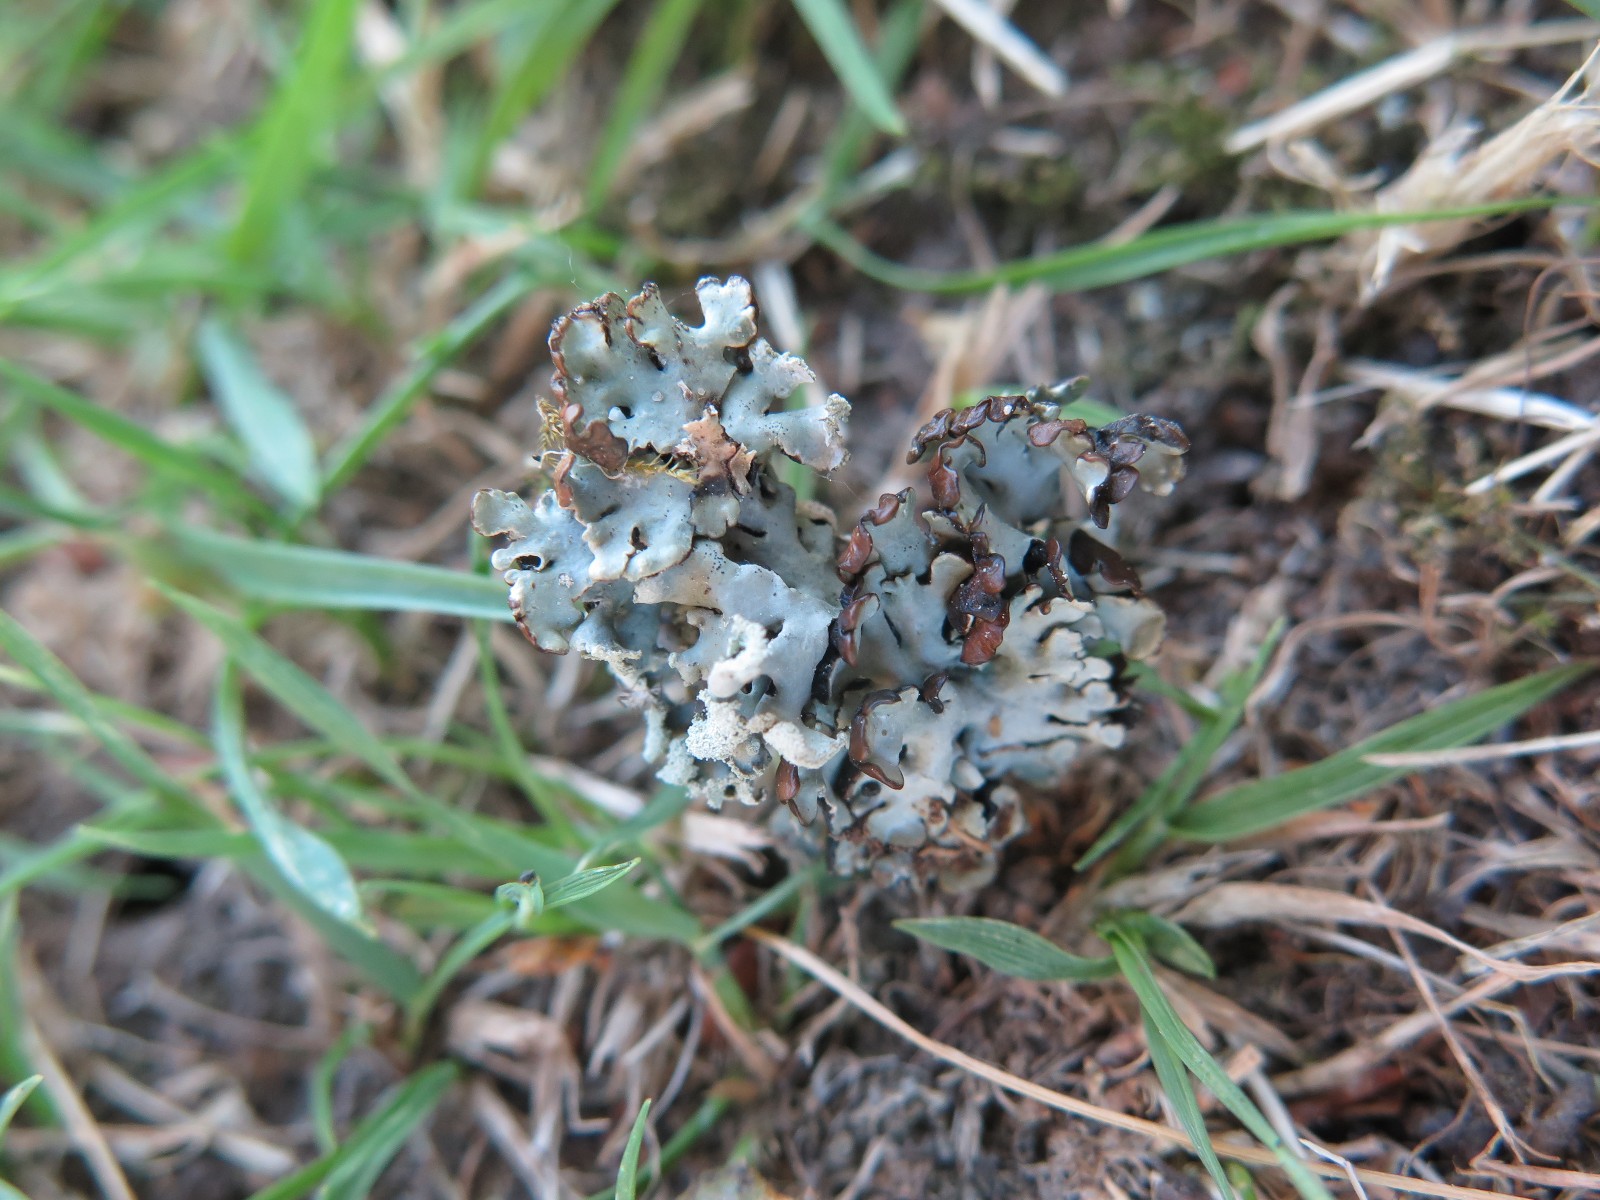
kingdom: Fungi
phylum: Ascomycota
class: Lecanoromycetes
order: Lecanorales
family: Parmeliaceae
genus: Hypogymnia
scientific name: Hypogymnia physodes
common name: almindelig kvistlav
